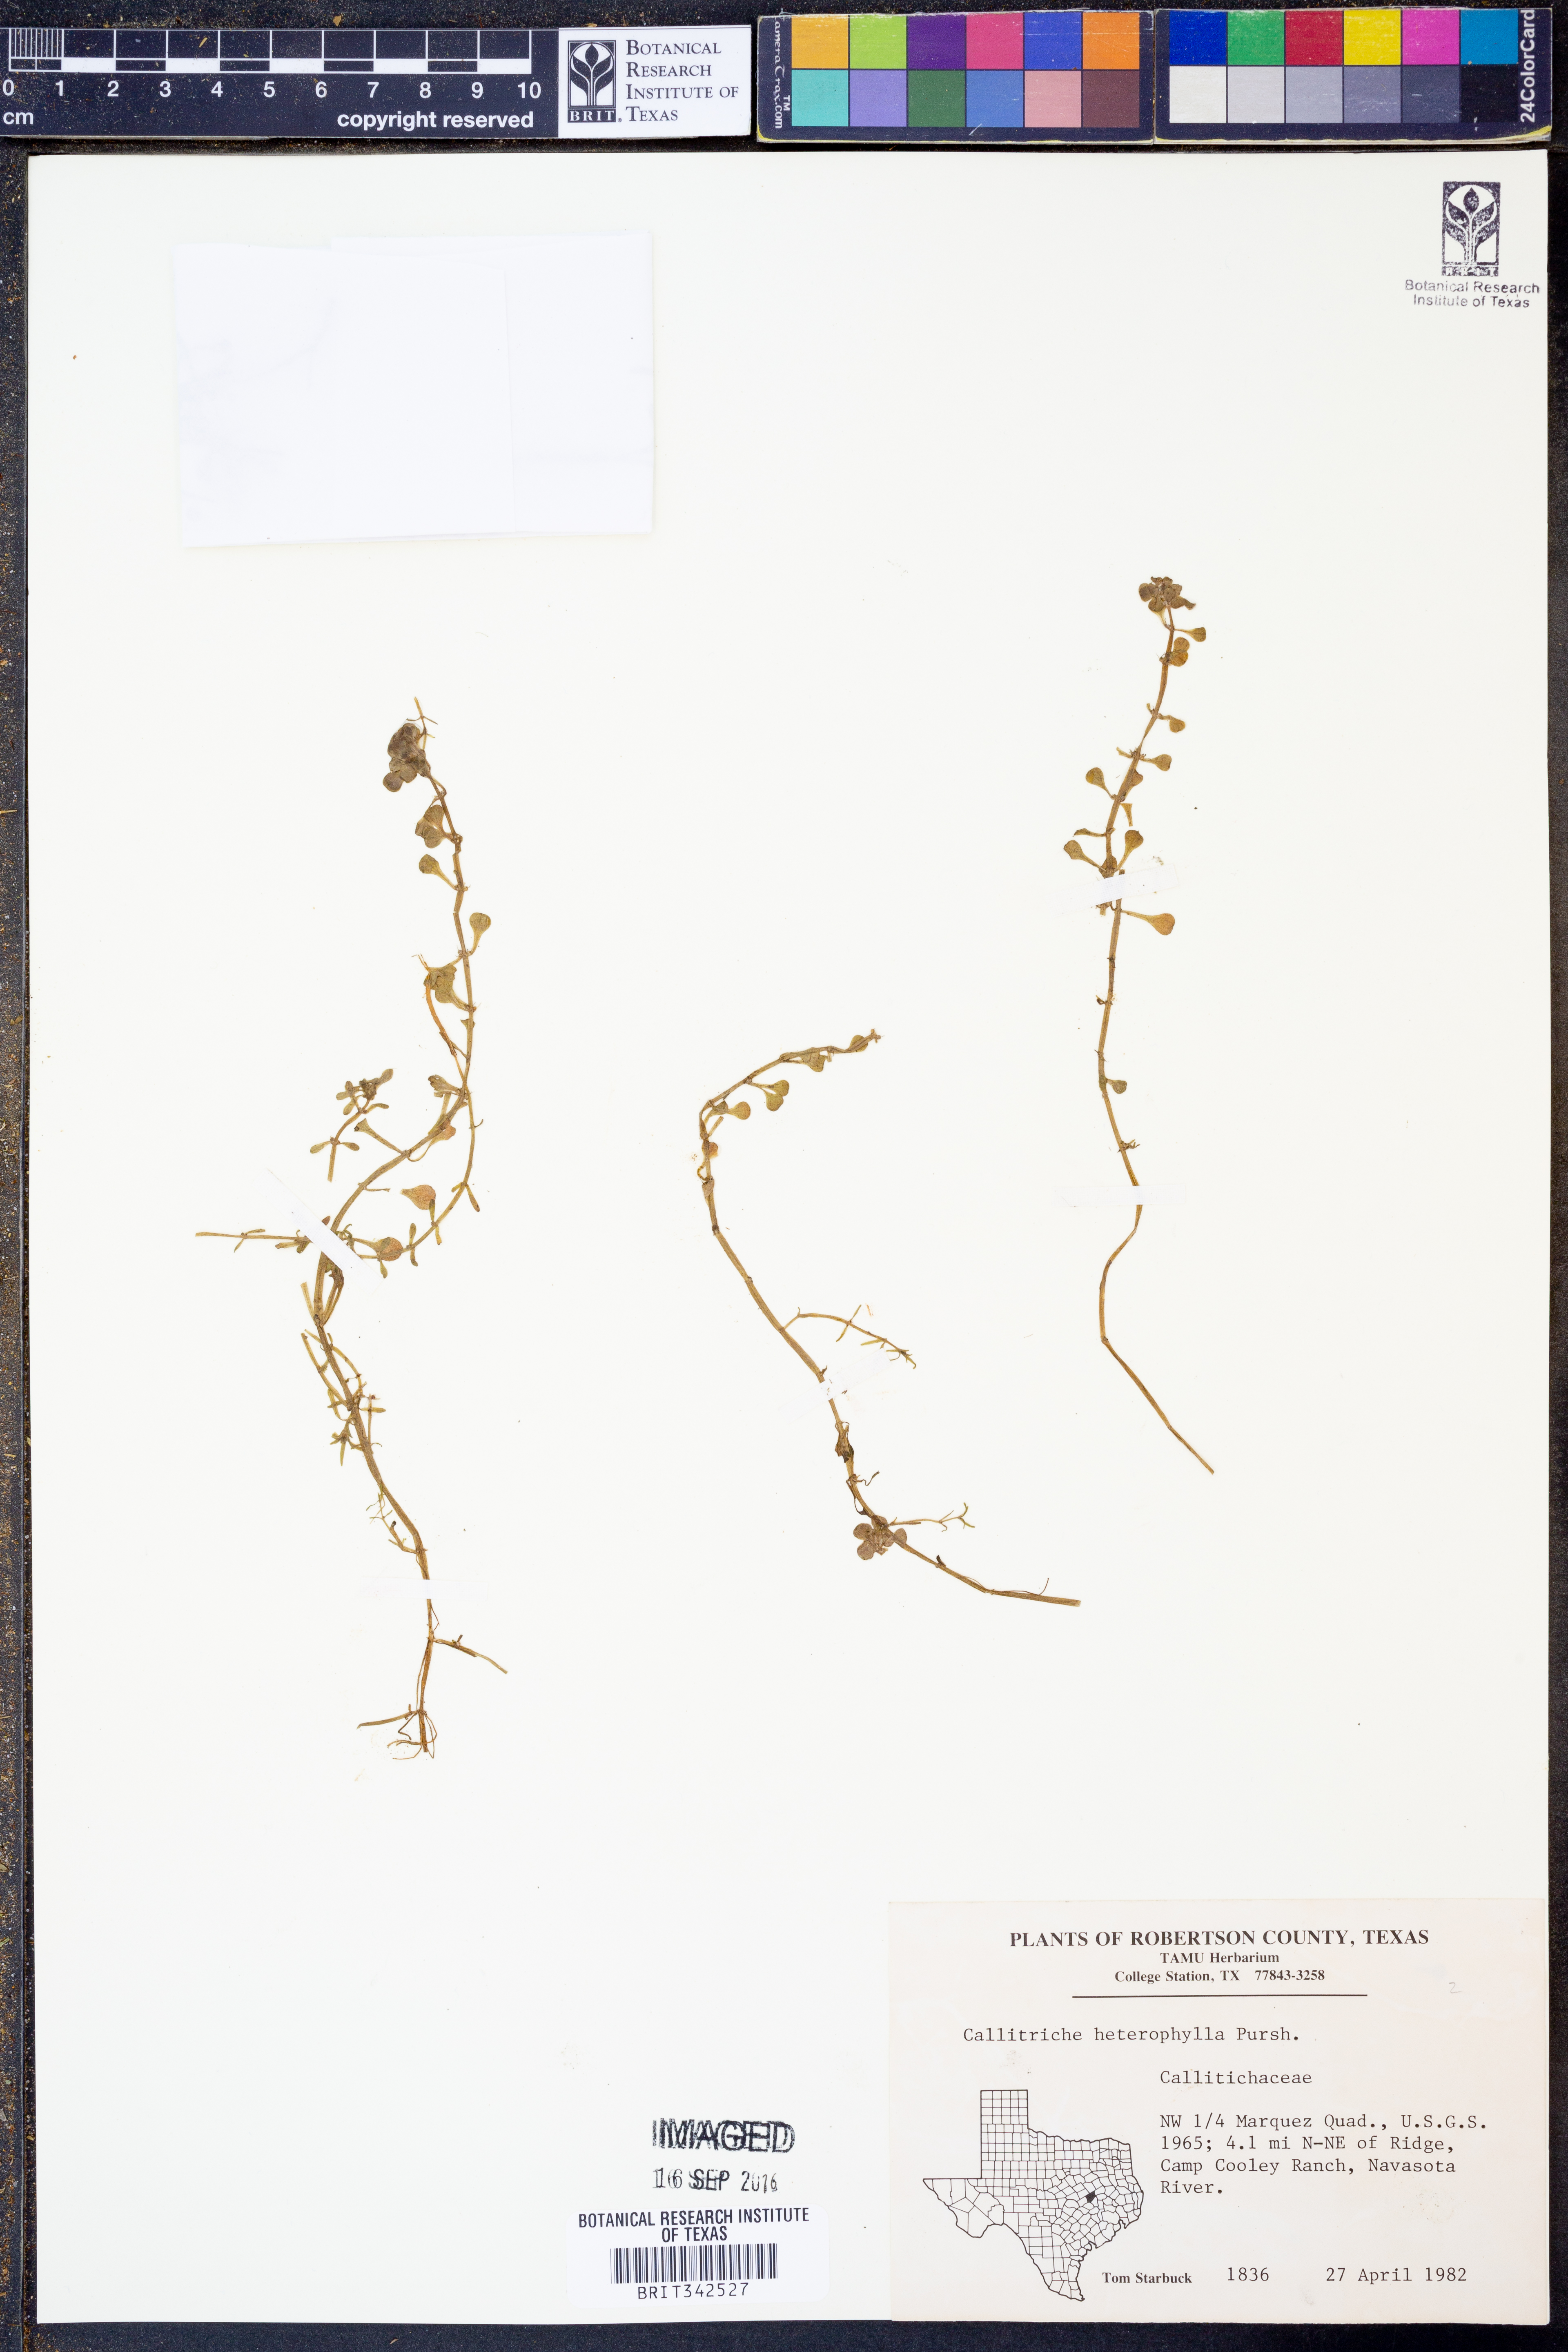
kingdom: Plantae
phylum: Tracheophyta
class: Magnoliopsida
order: Lamiales
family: Plantaginaceae
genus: Callitriche
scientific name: Callitriche heterophylla
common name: Two-headed water-starwort
